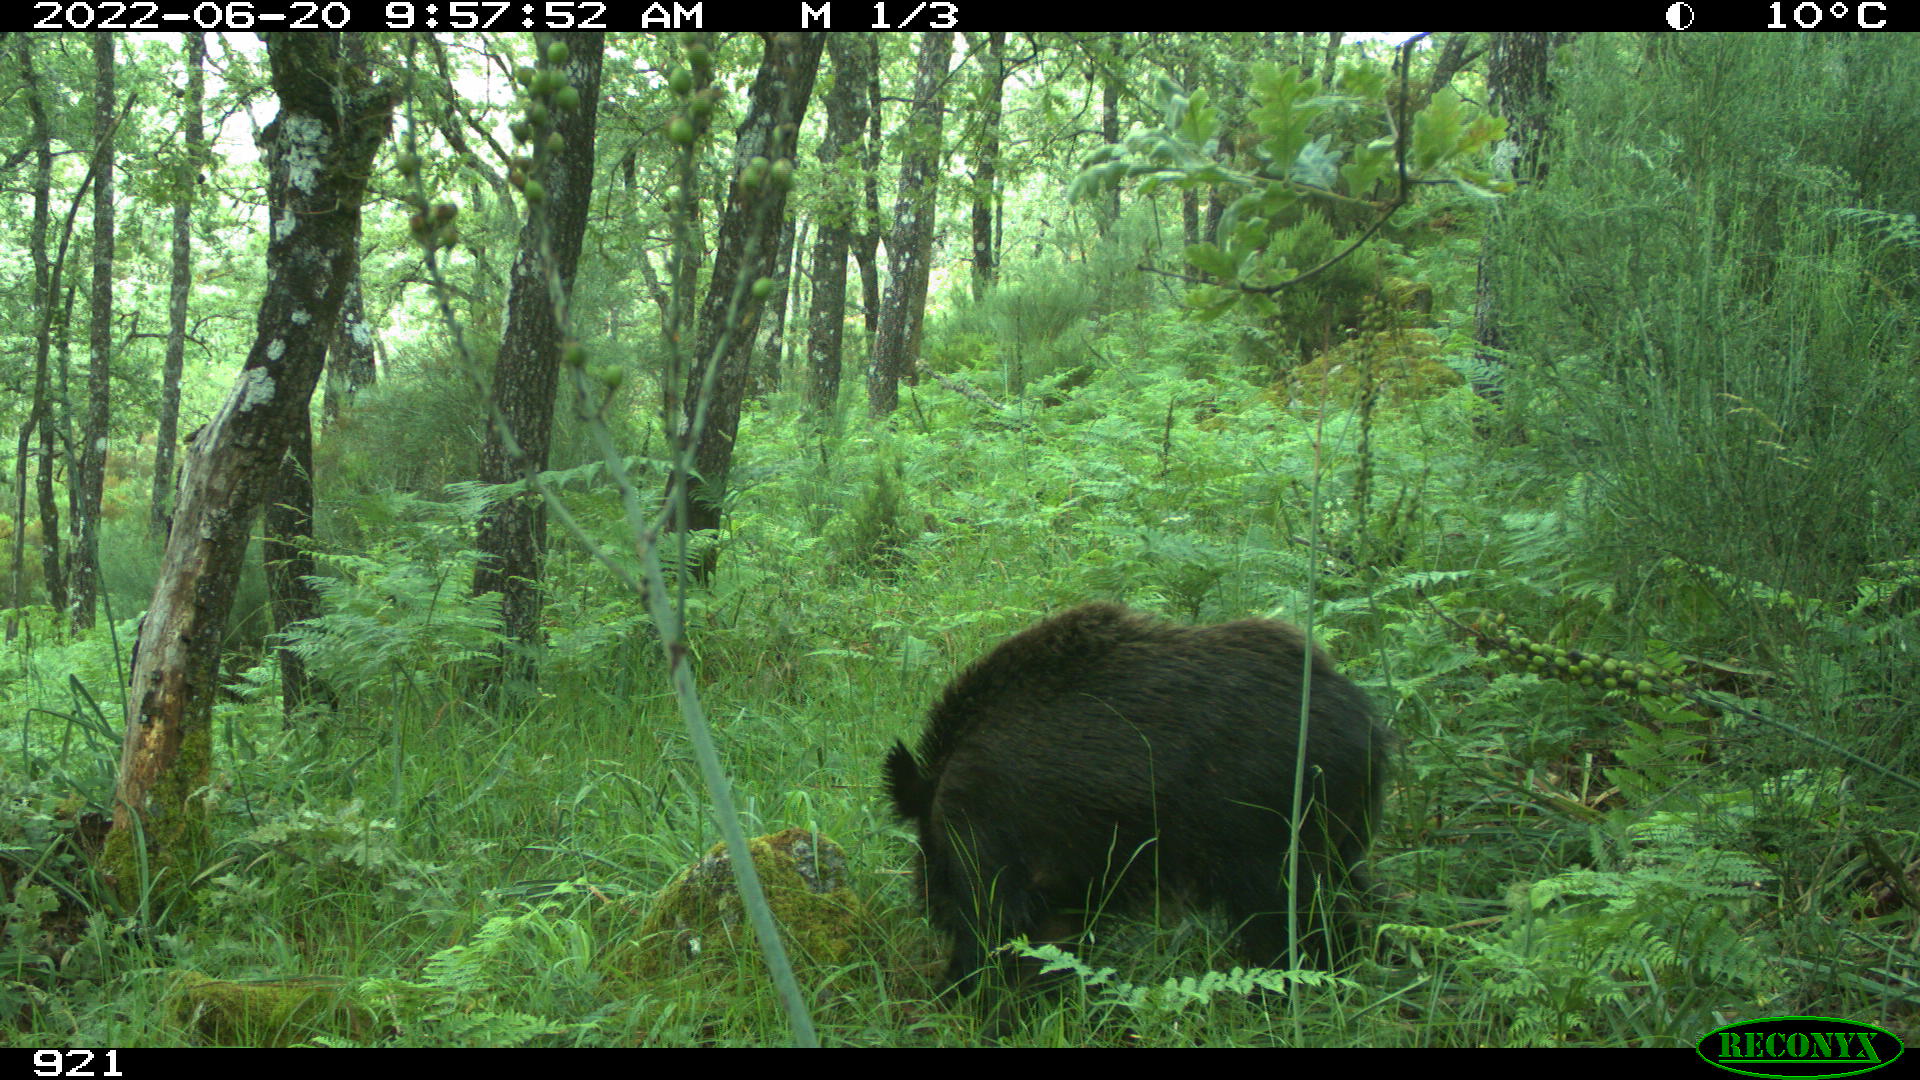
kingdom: Animalia
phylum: Chordata
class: Mammalia
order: Artiodactyla
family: Suidae
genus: Sus
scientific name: Sus scrofa
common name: Wild boar
